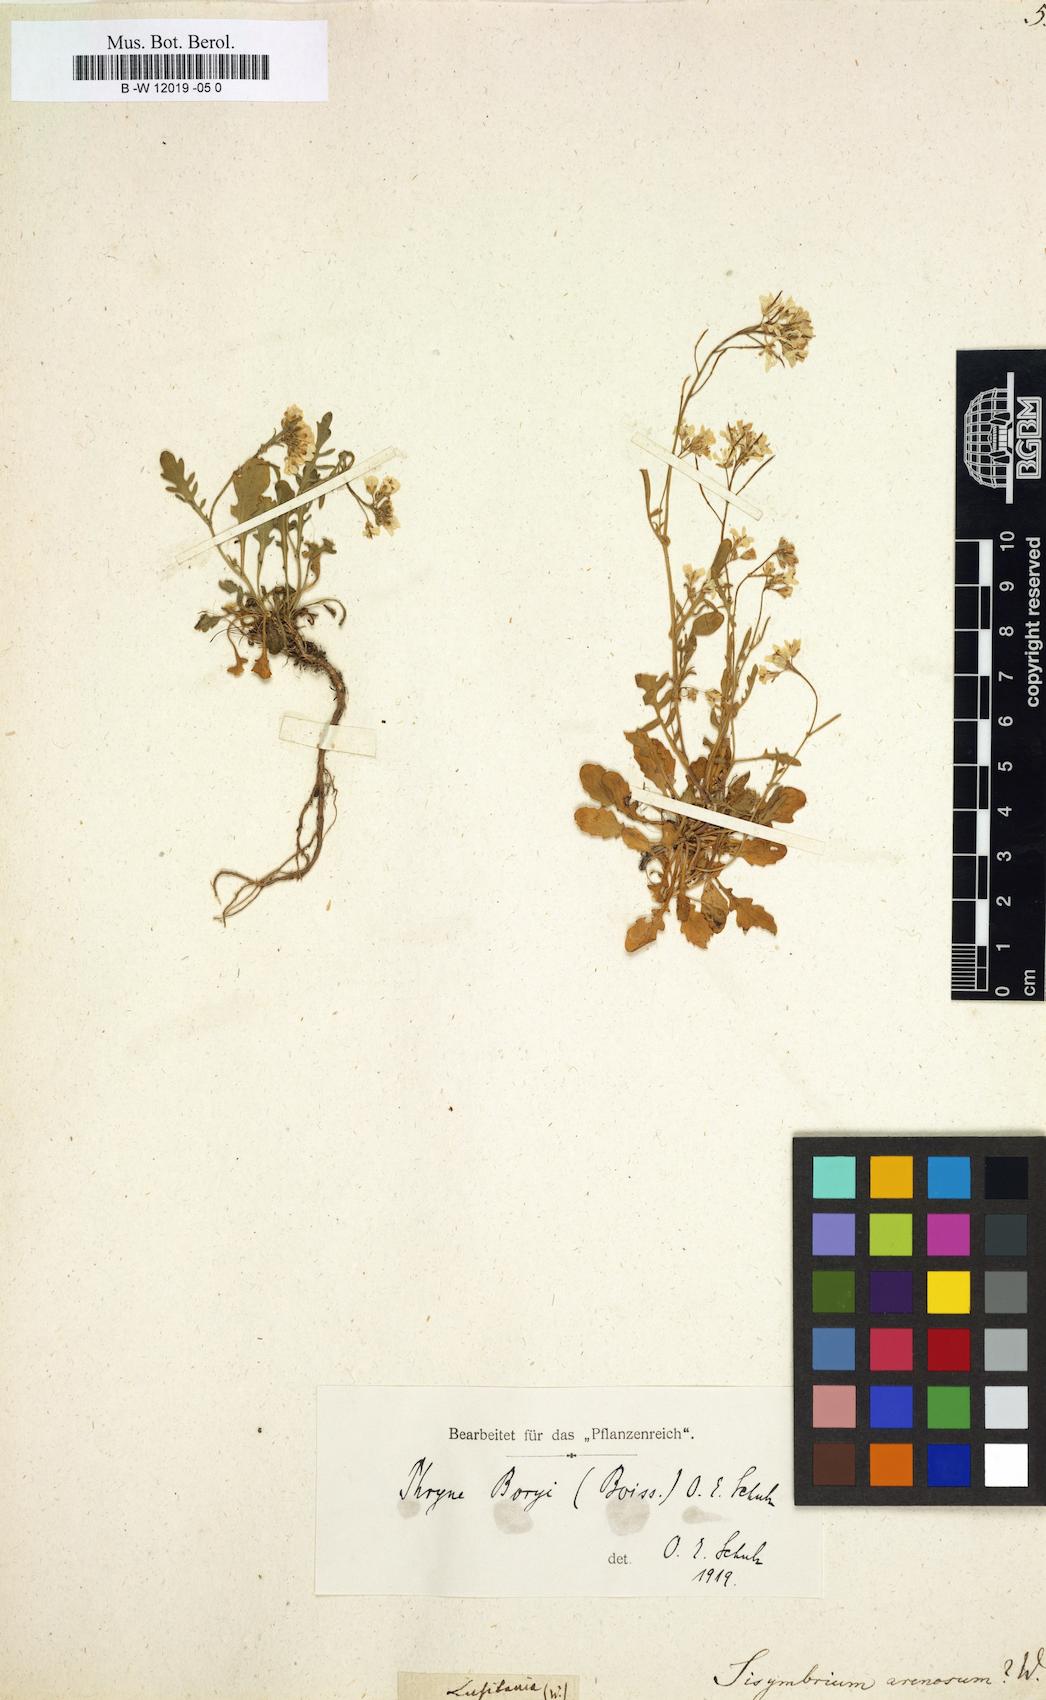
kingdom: Plantae
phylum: Tracheophyta
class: Magnoliopsida
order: Brassicales
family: Brassicaceae
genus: Arabidopsis
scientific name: Arabidopsis
